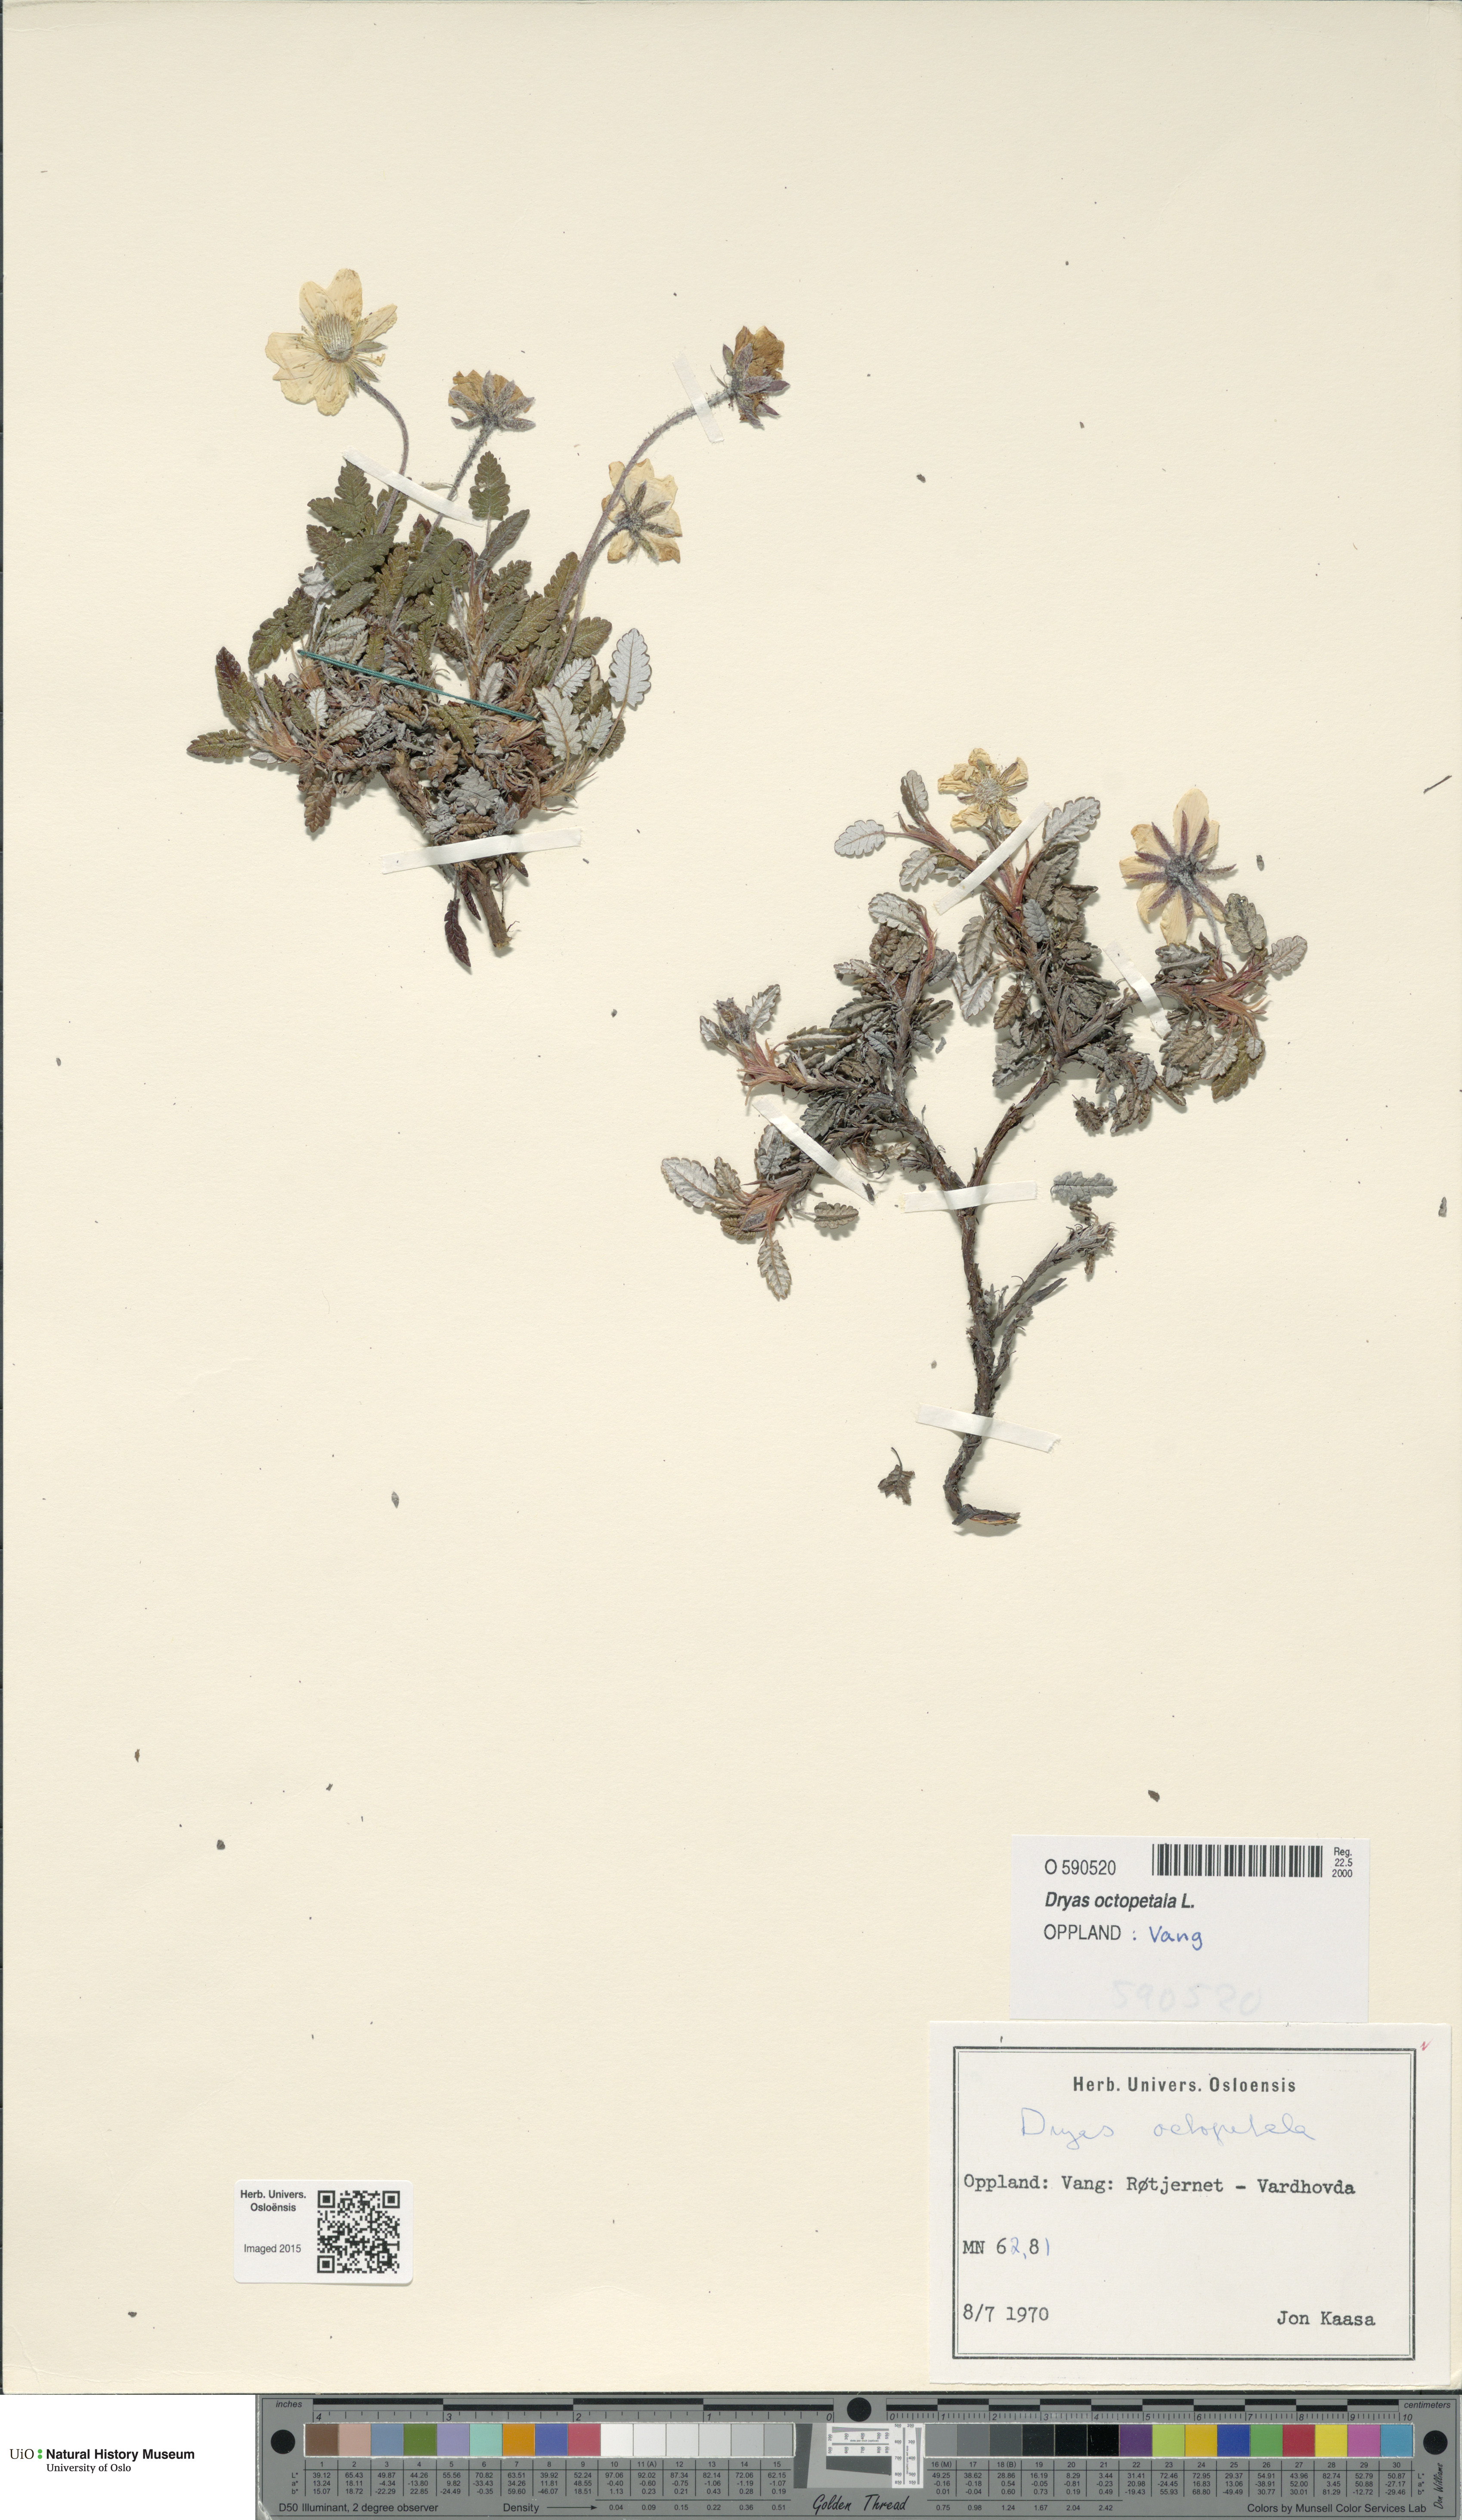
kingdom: Plantae
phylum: Tracheophyta
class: Magnoliopsida
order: Rosales
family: Rosaceae
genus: Dryas
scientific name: Dryas octopetala
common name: Eight-petal mountain-avens
